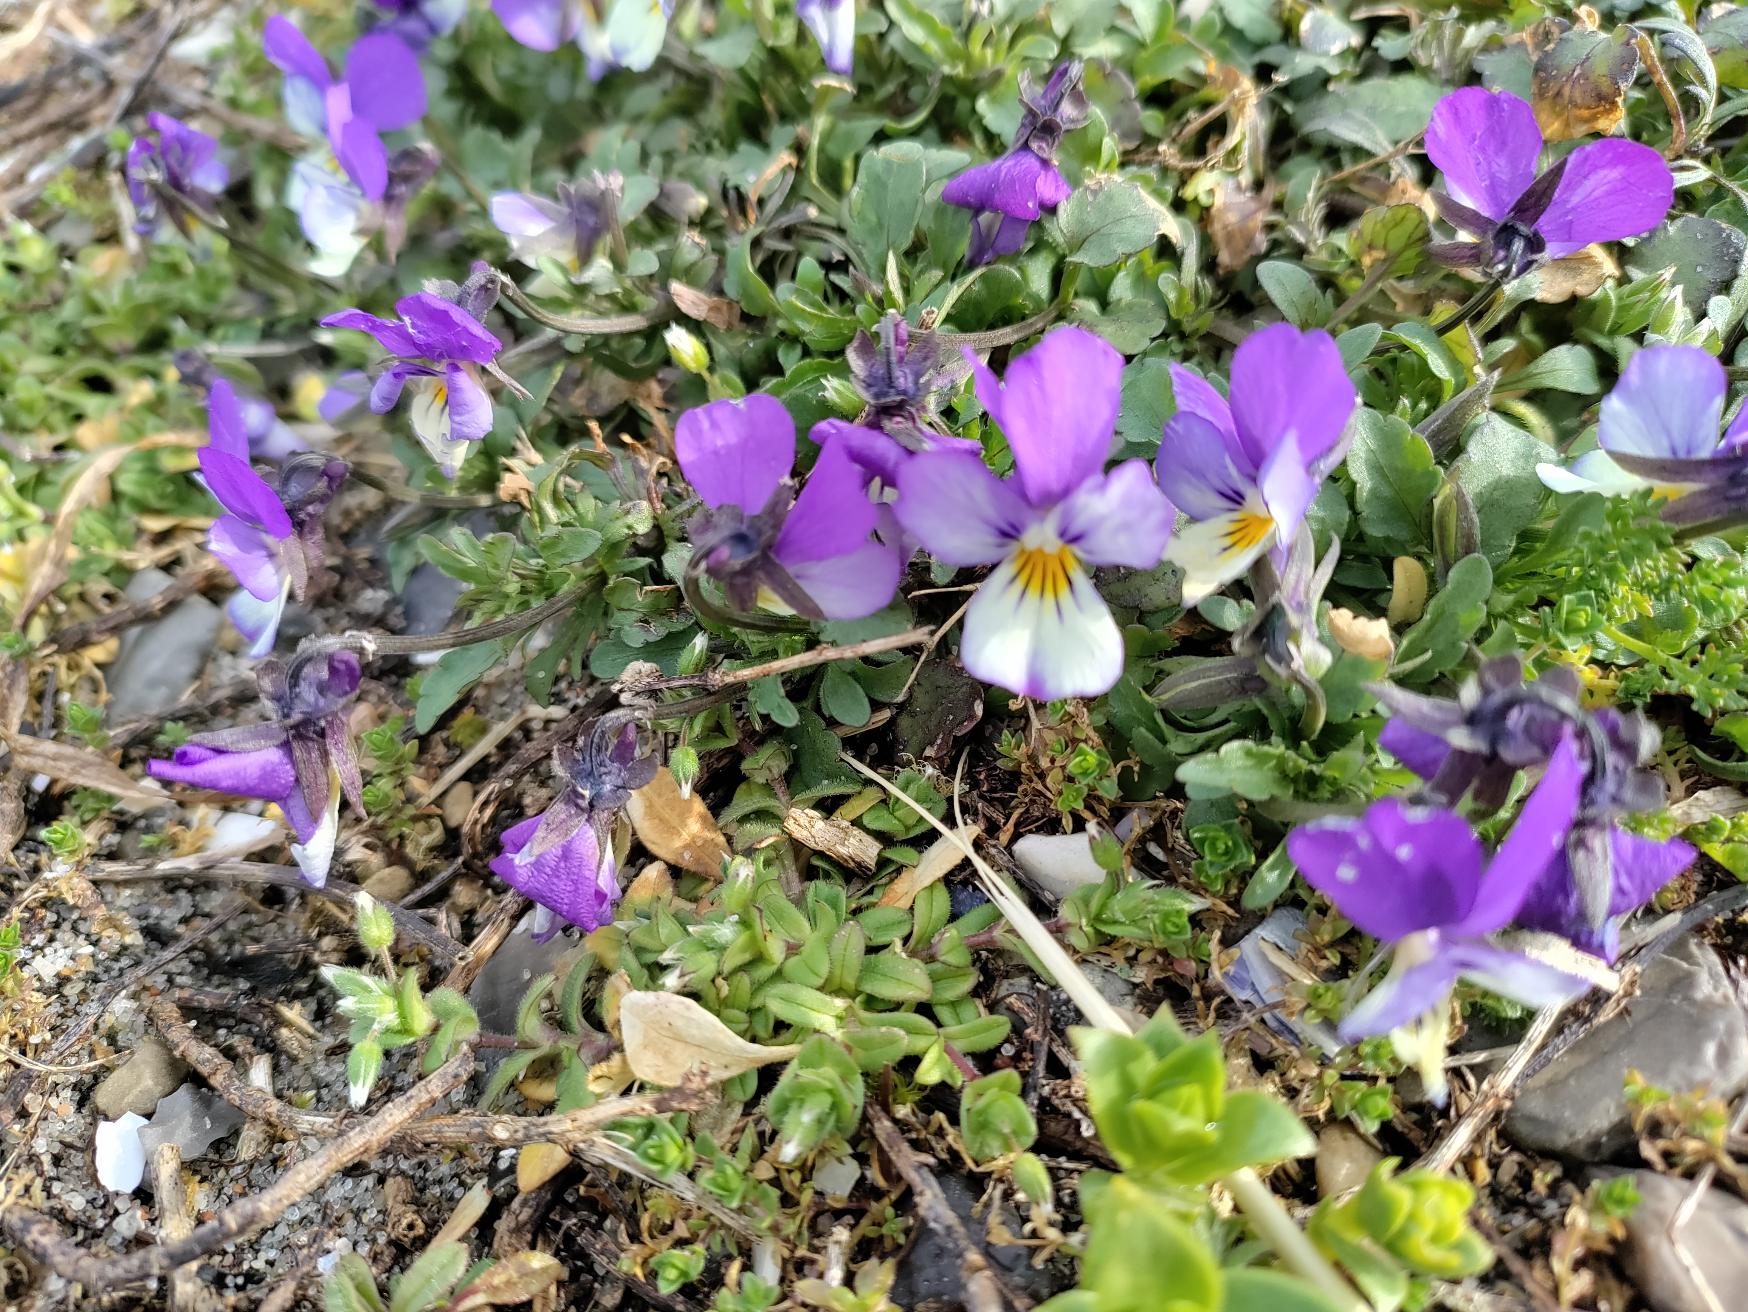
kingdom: Plantae
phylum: Tracheophyta
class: Magnoliopsida
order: Malpighiales
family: Violaceae
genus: Viola
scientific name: Viola tricolor
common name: Stedmoderblomst
